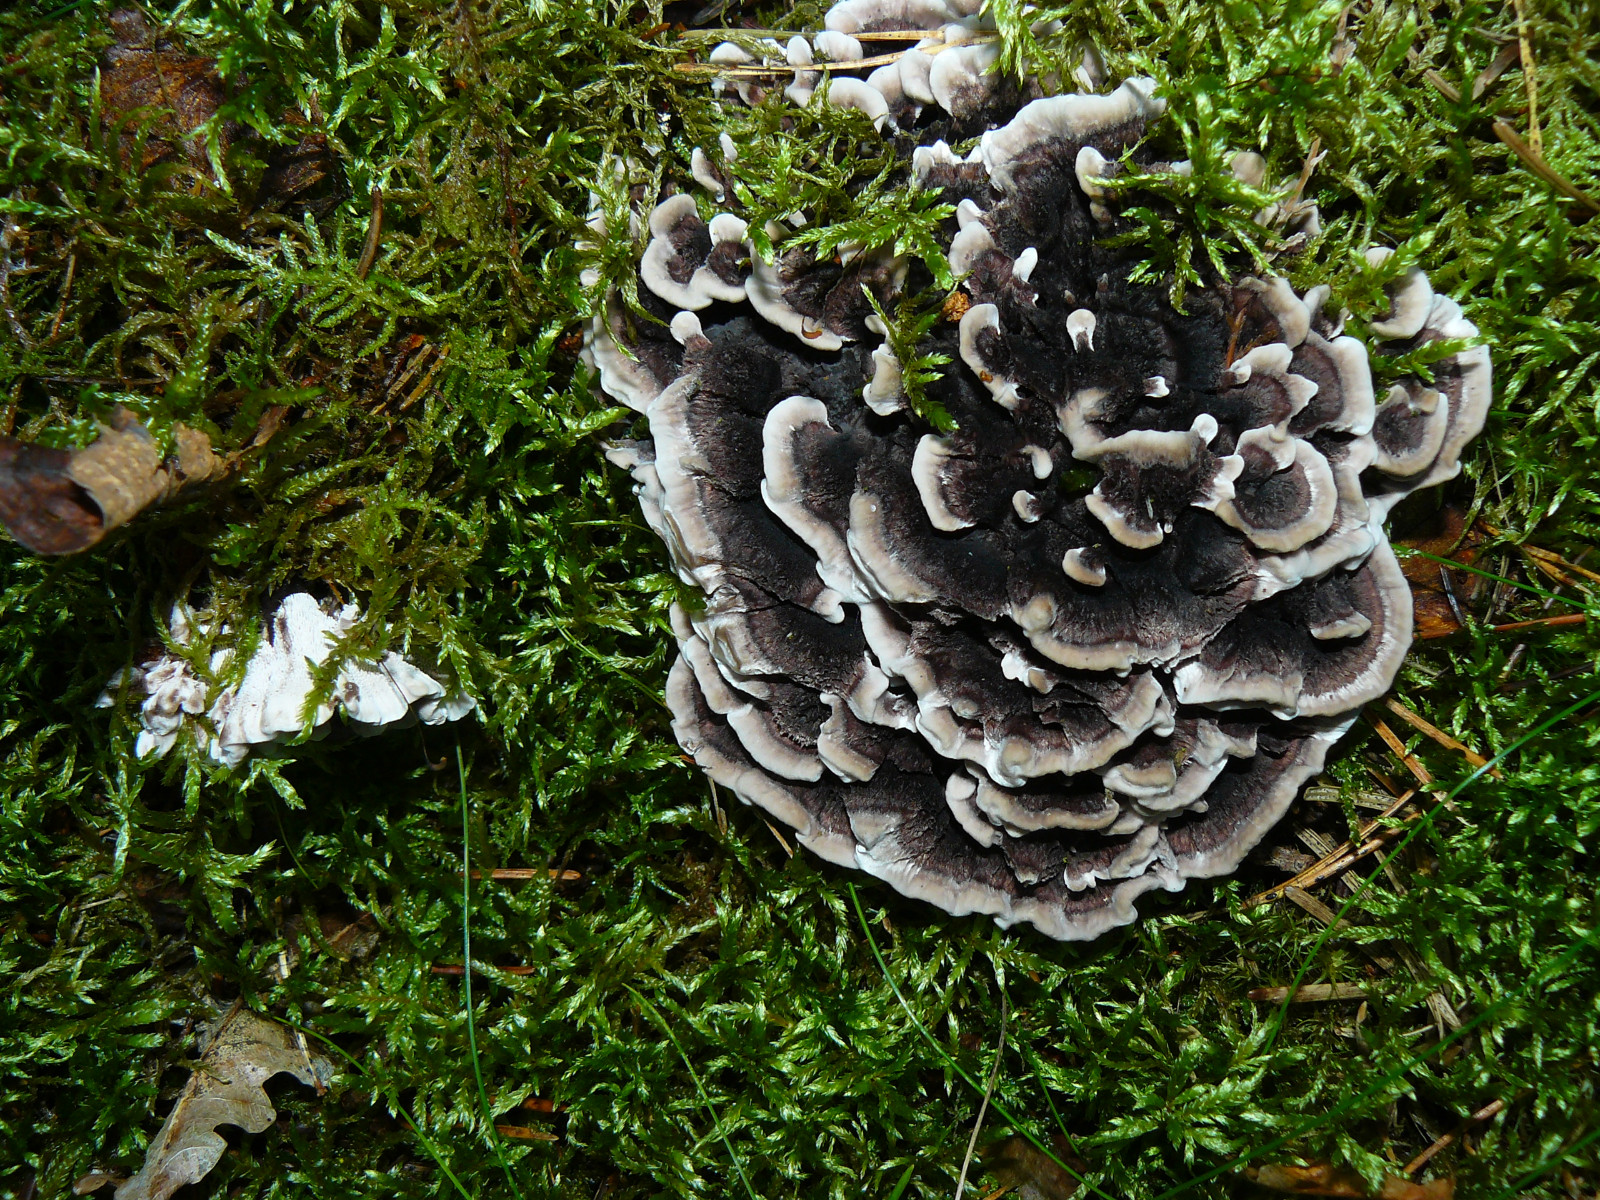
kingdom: Fungi
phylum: Basidiomycota
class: Agaricomycetes
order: Thelephorales
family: Thelephoraceae
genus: Phellodon
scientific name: Phellodon tomentosus
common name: vellugtende duftpigsvamp
